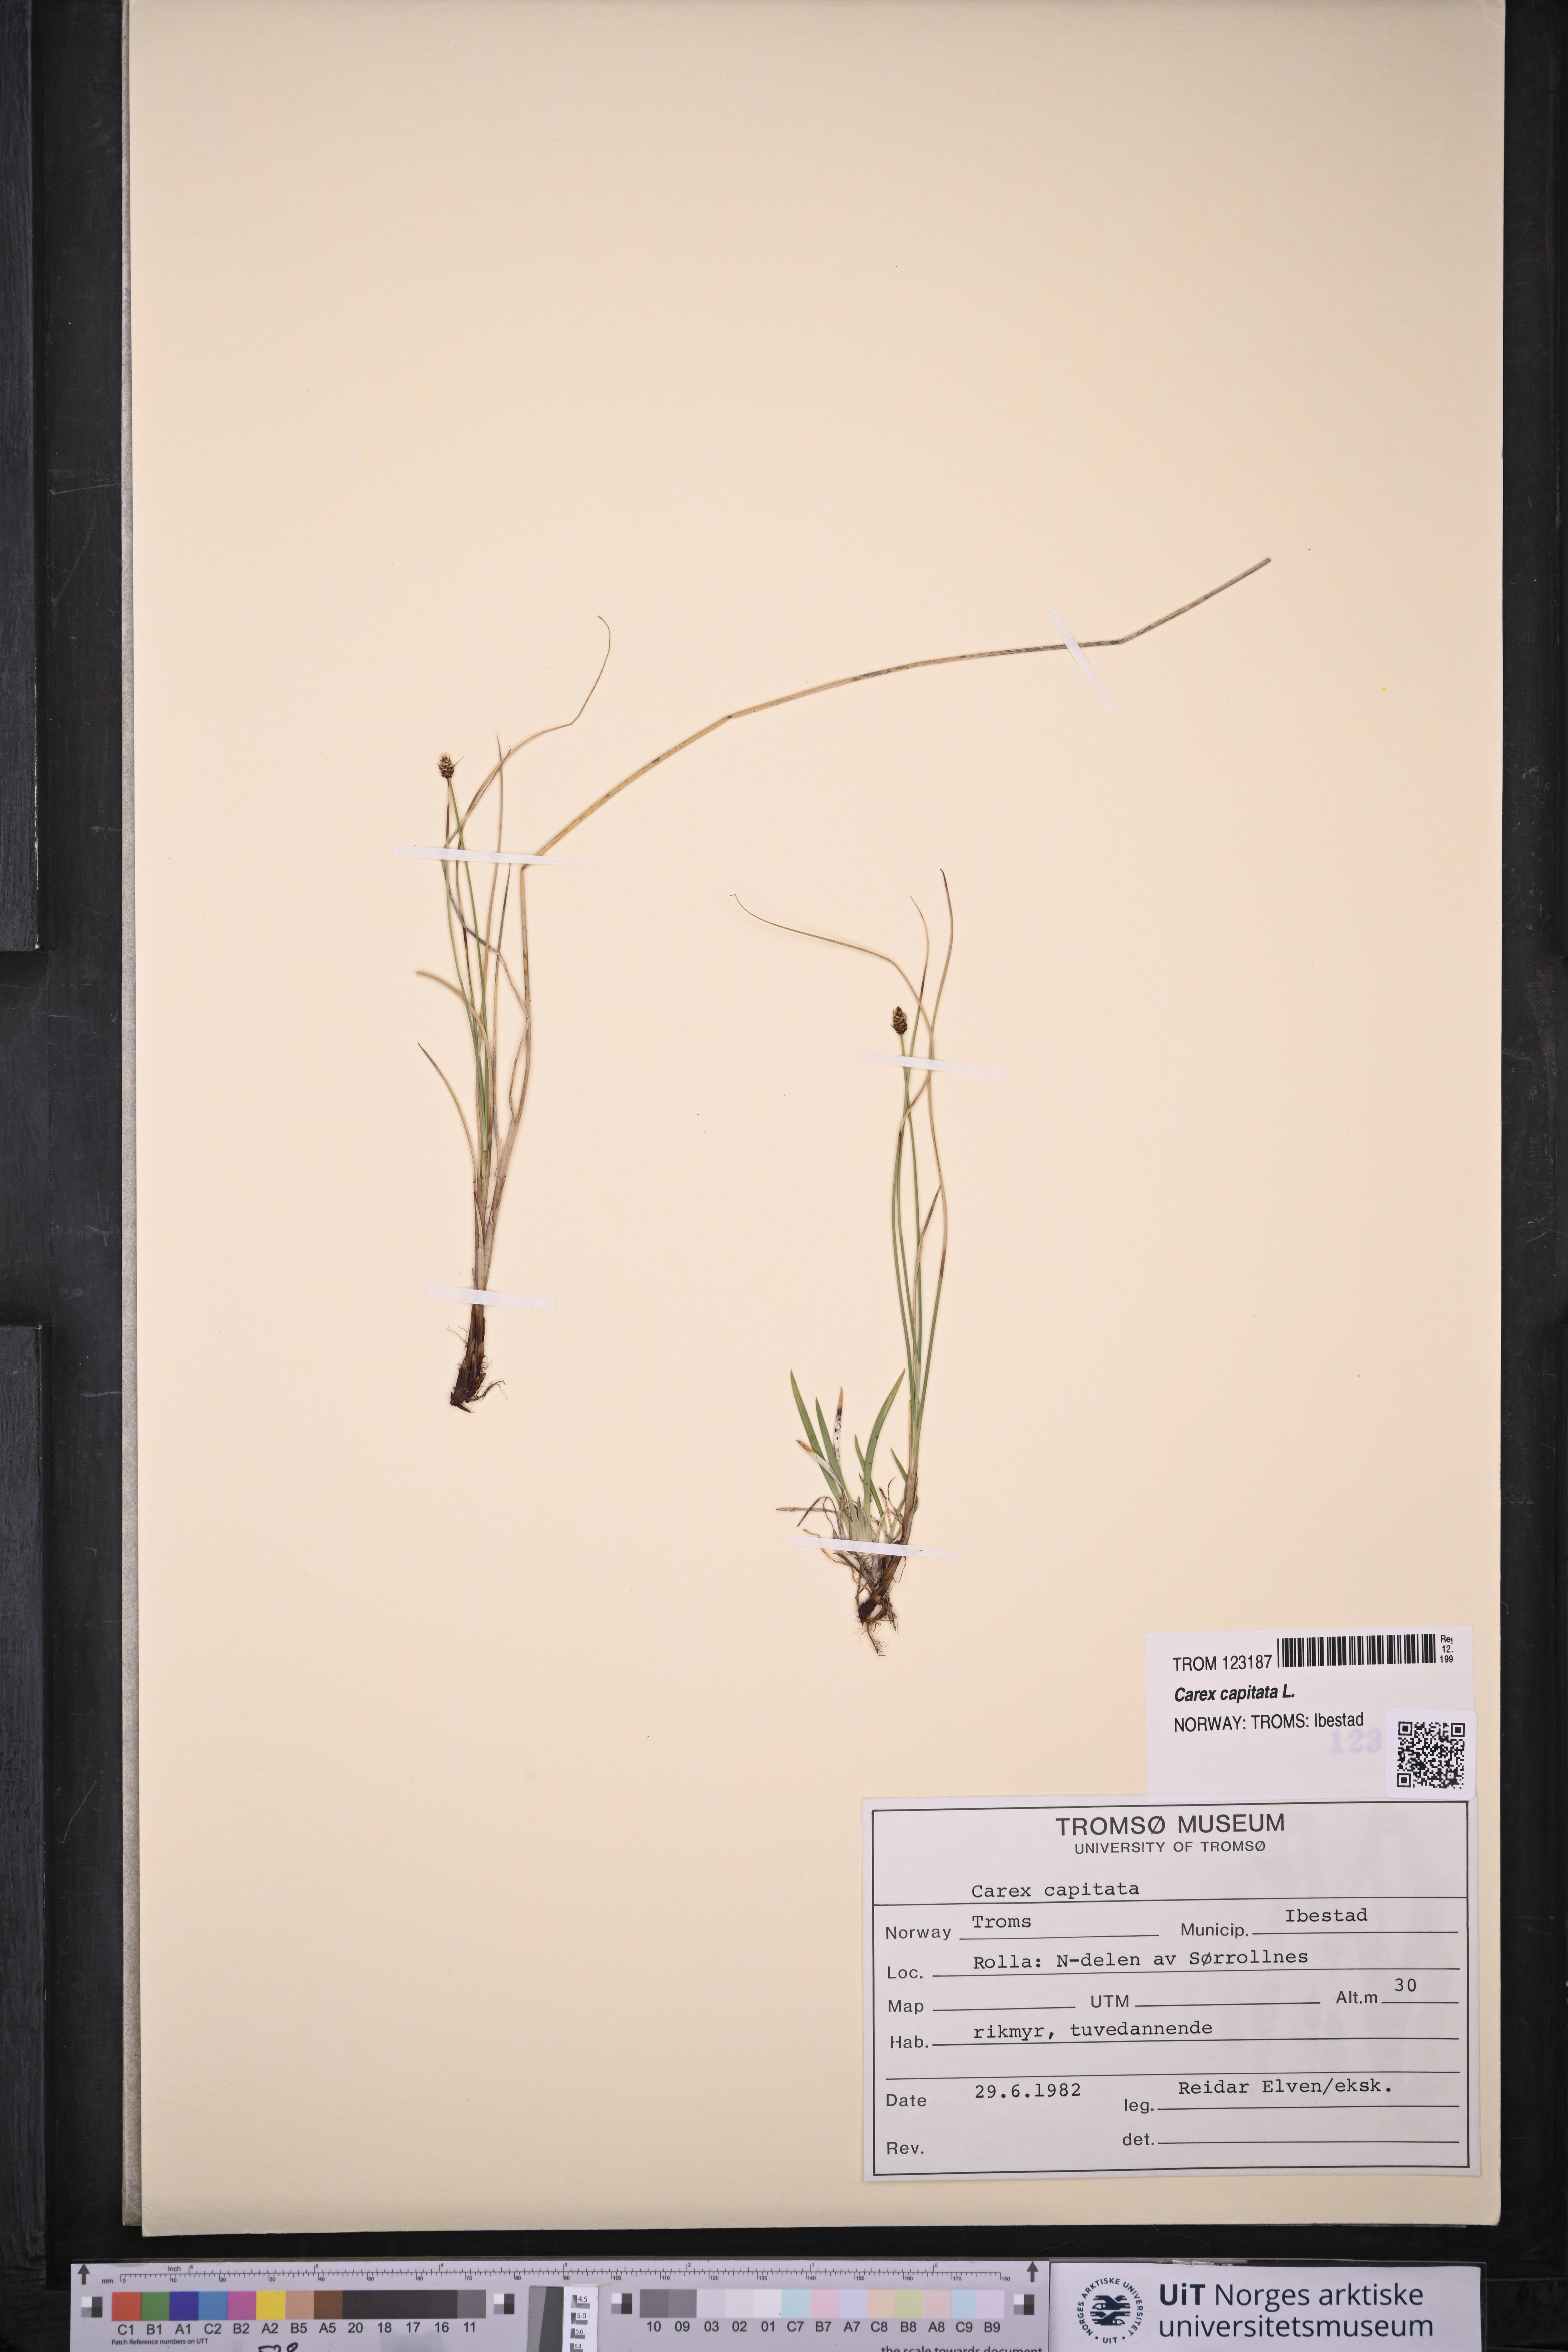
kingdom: Plantae
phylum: Tracheophyta
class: Liliopsida
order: Poales
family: Cyperaceae
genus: Carex
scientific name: Carex capitata
